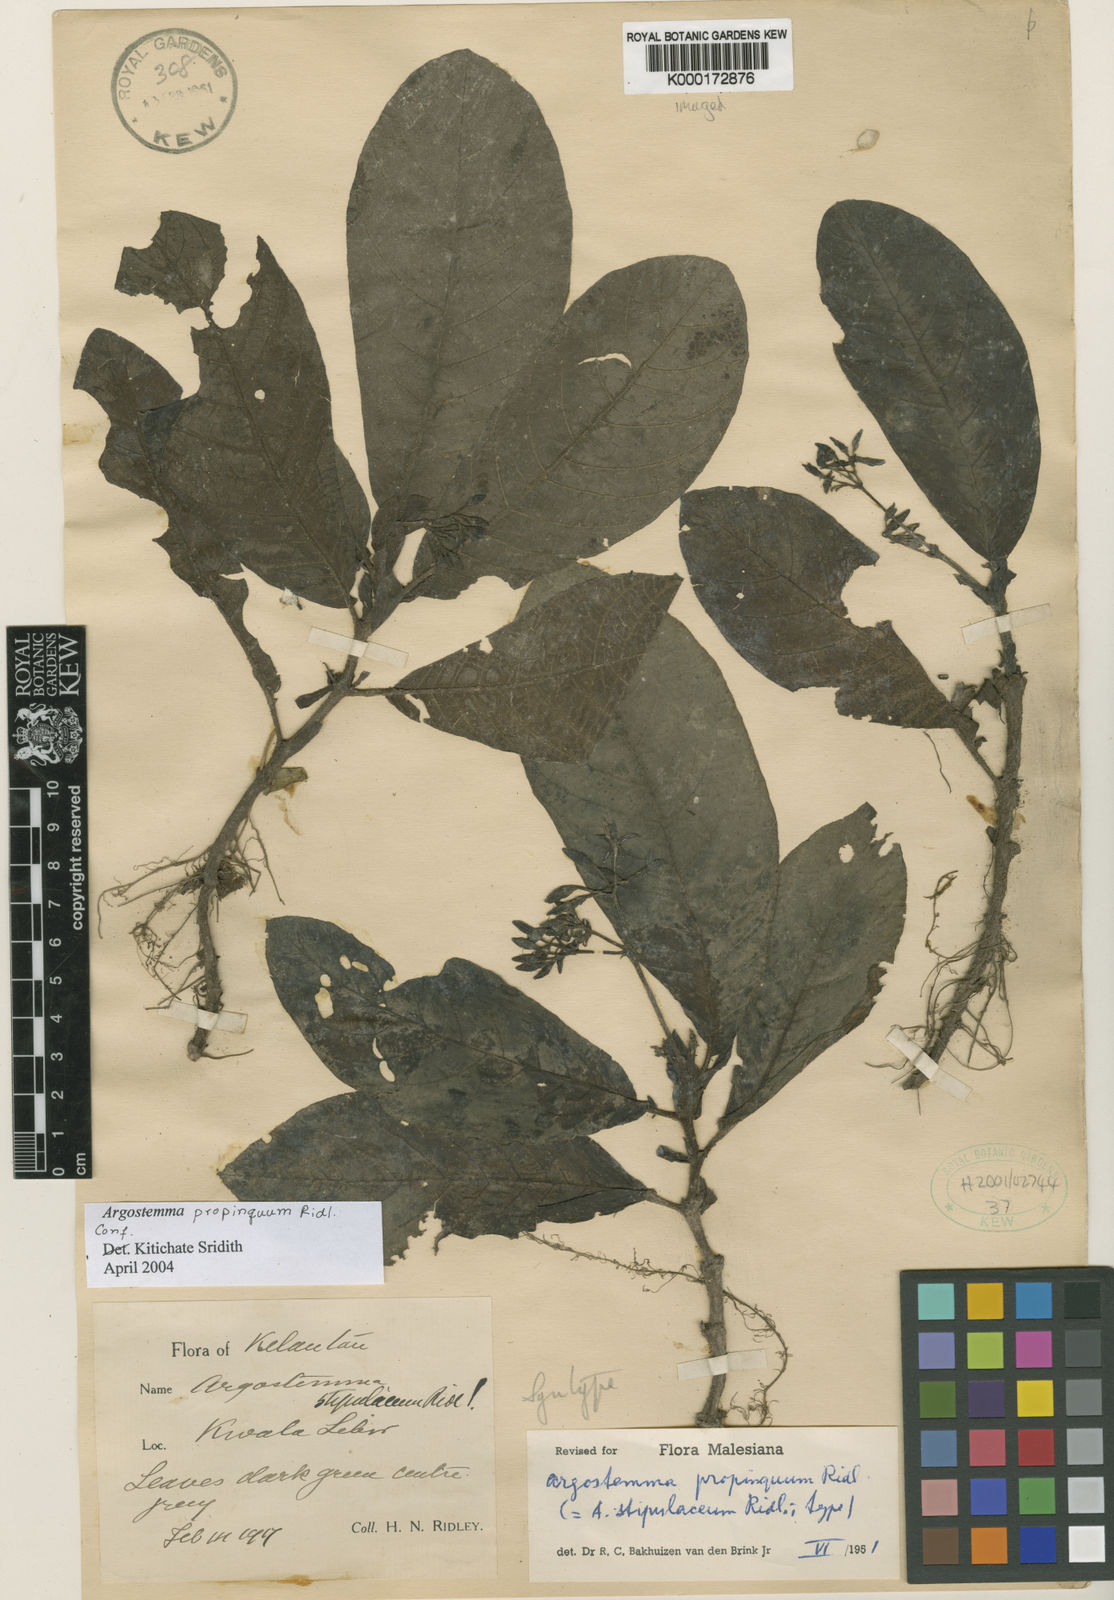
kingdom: Plantae
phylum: Tracheophyta
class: Magnoliopsida
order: Gentianales
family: Rubiaceae
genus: Argostemma
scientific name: Argostemma propinquum
